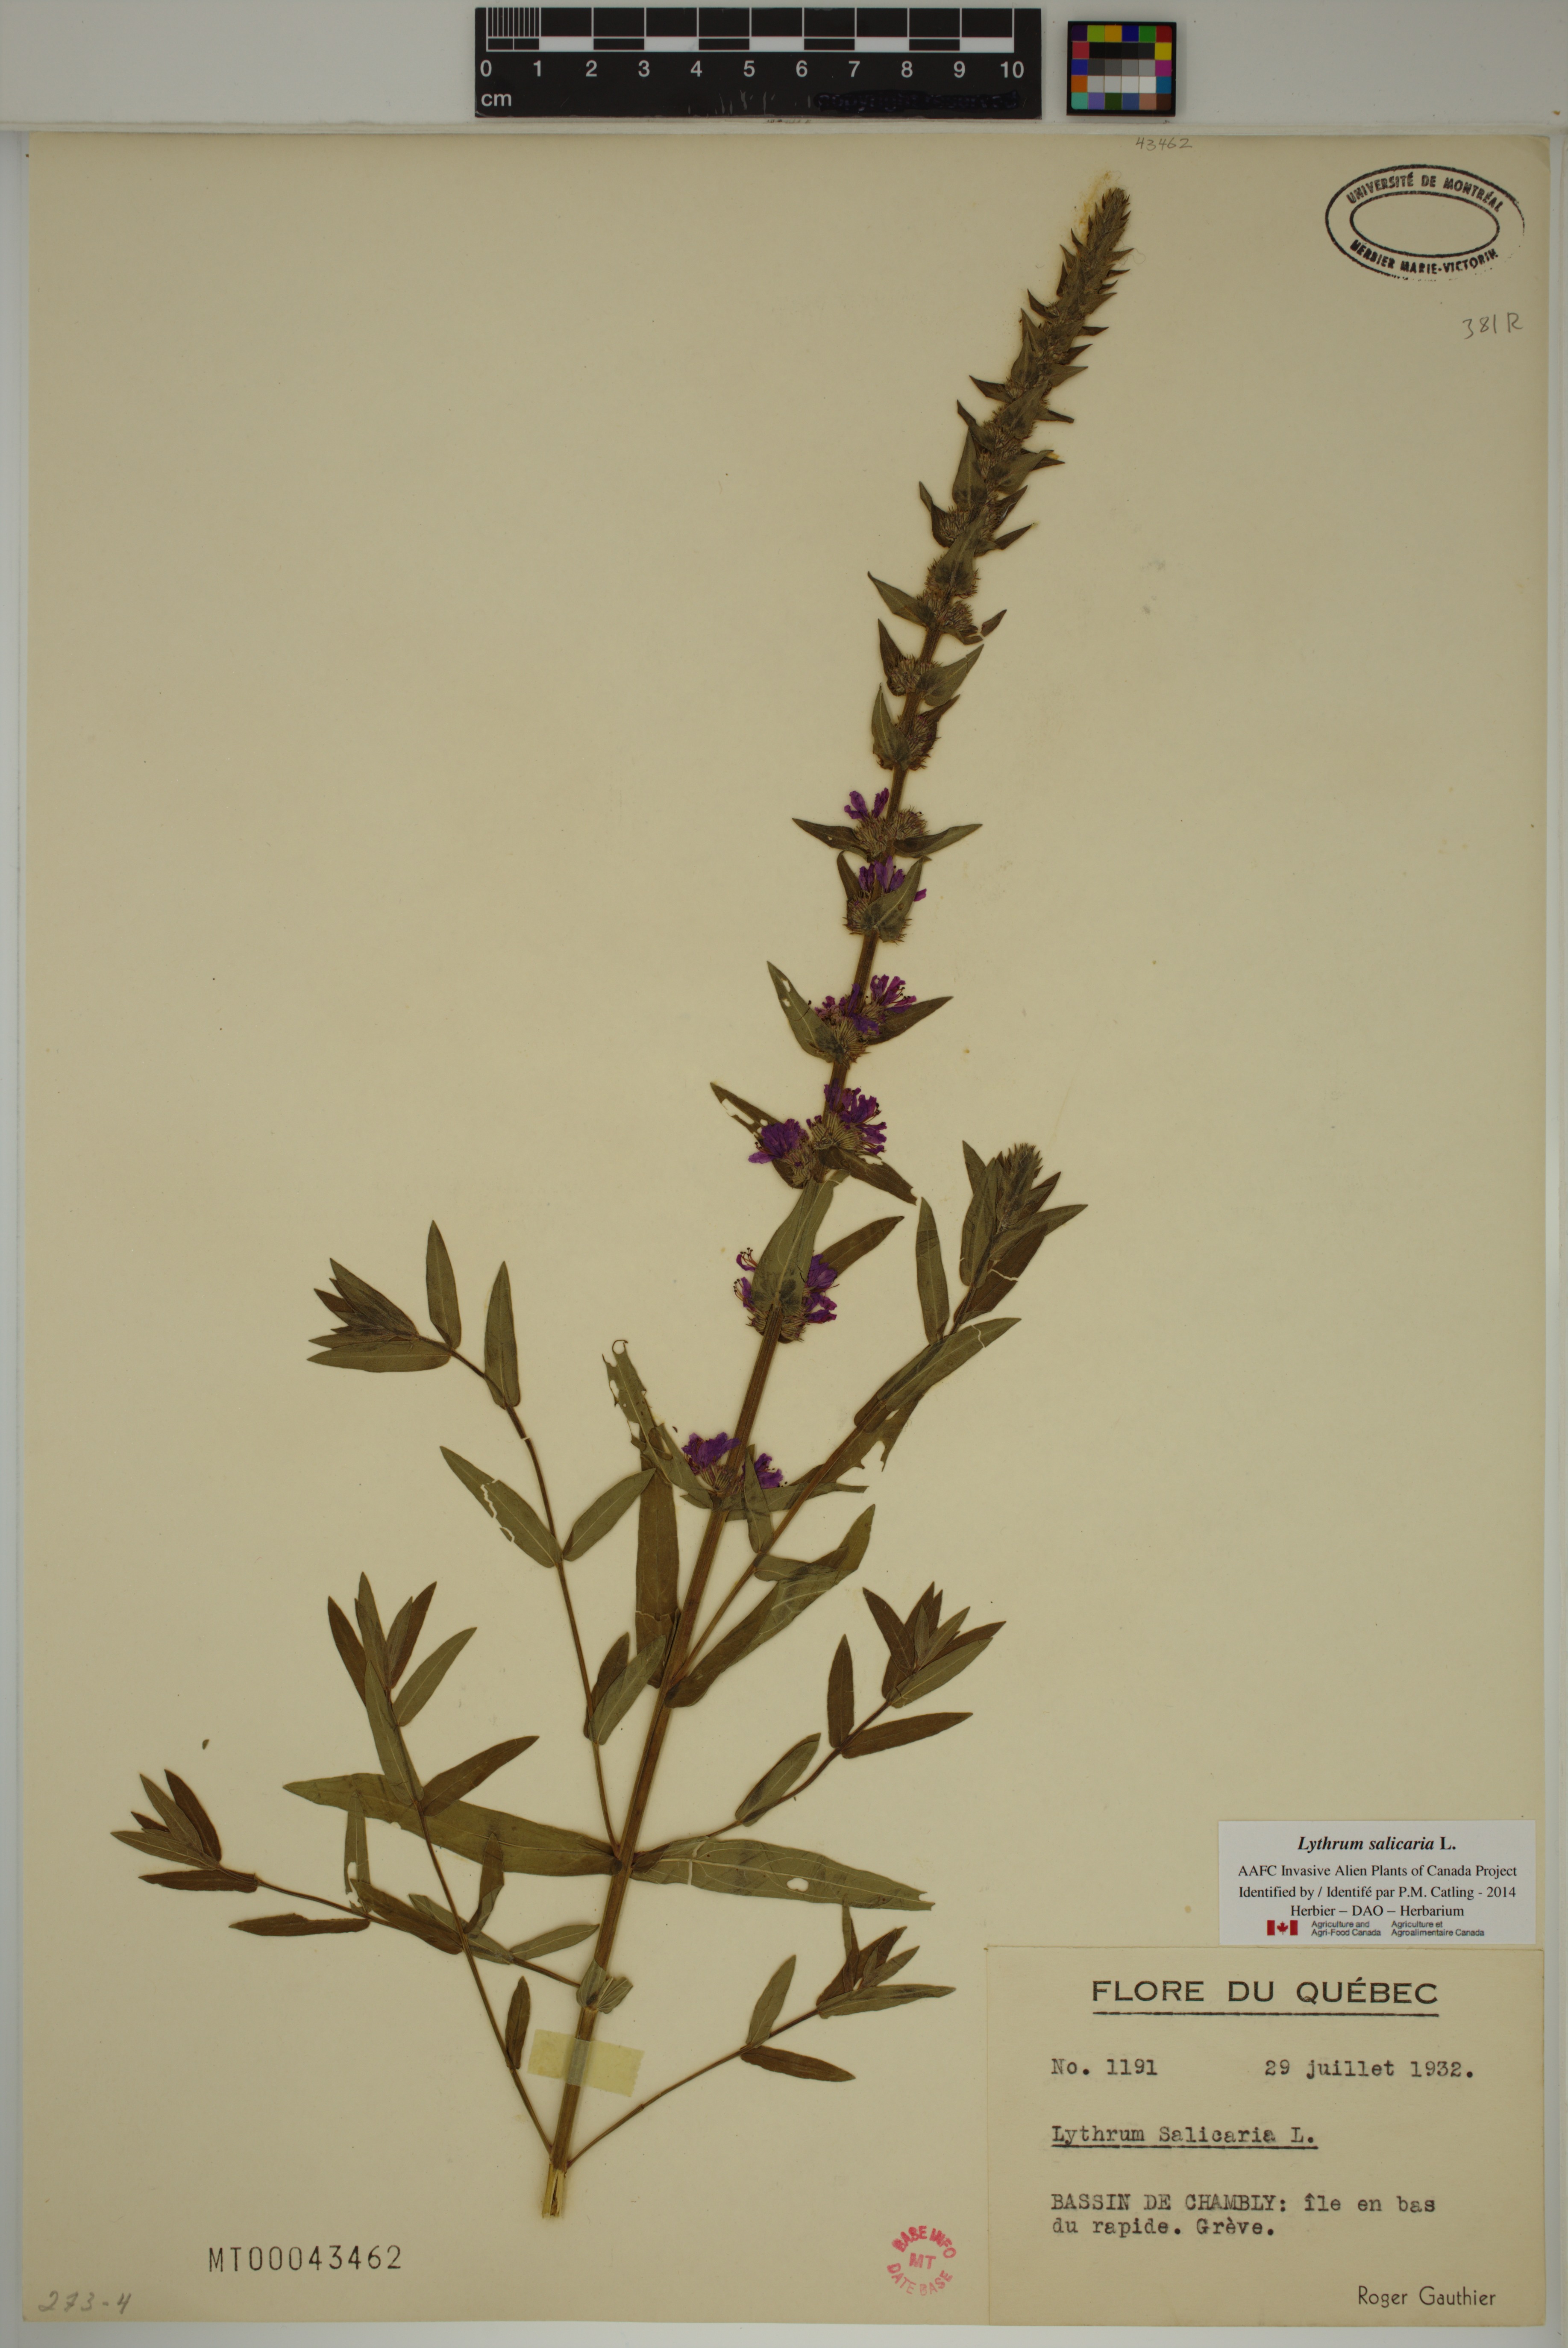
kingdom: Plantae
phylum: Tracheophyta
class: Magnoliopsida
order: Myrtales
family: Lythraceae
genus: Lythrum
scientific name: Lythrum salicaria
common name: Purple loosestrife
